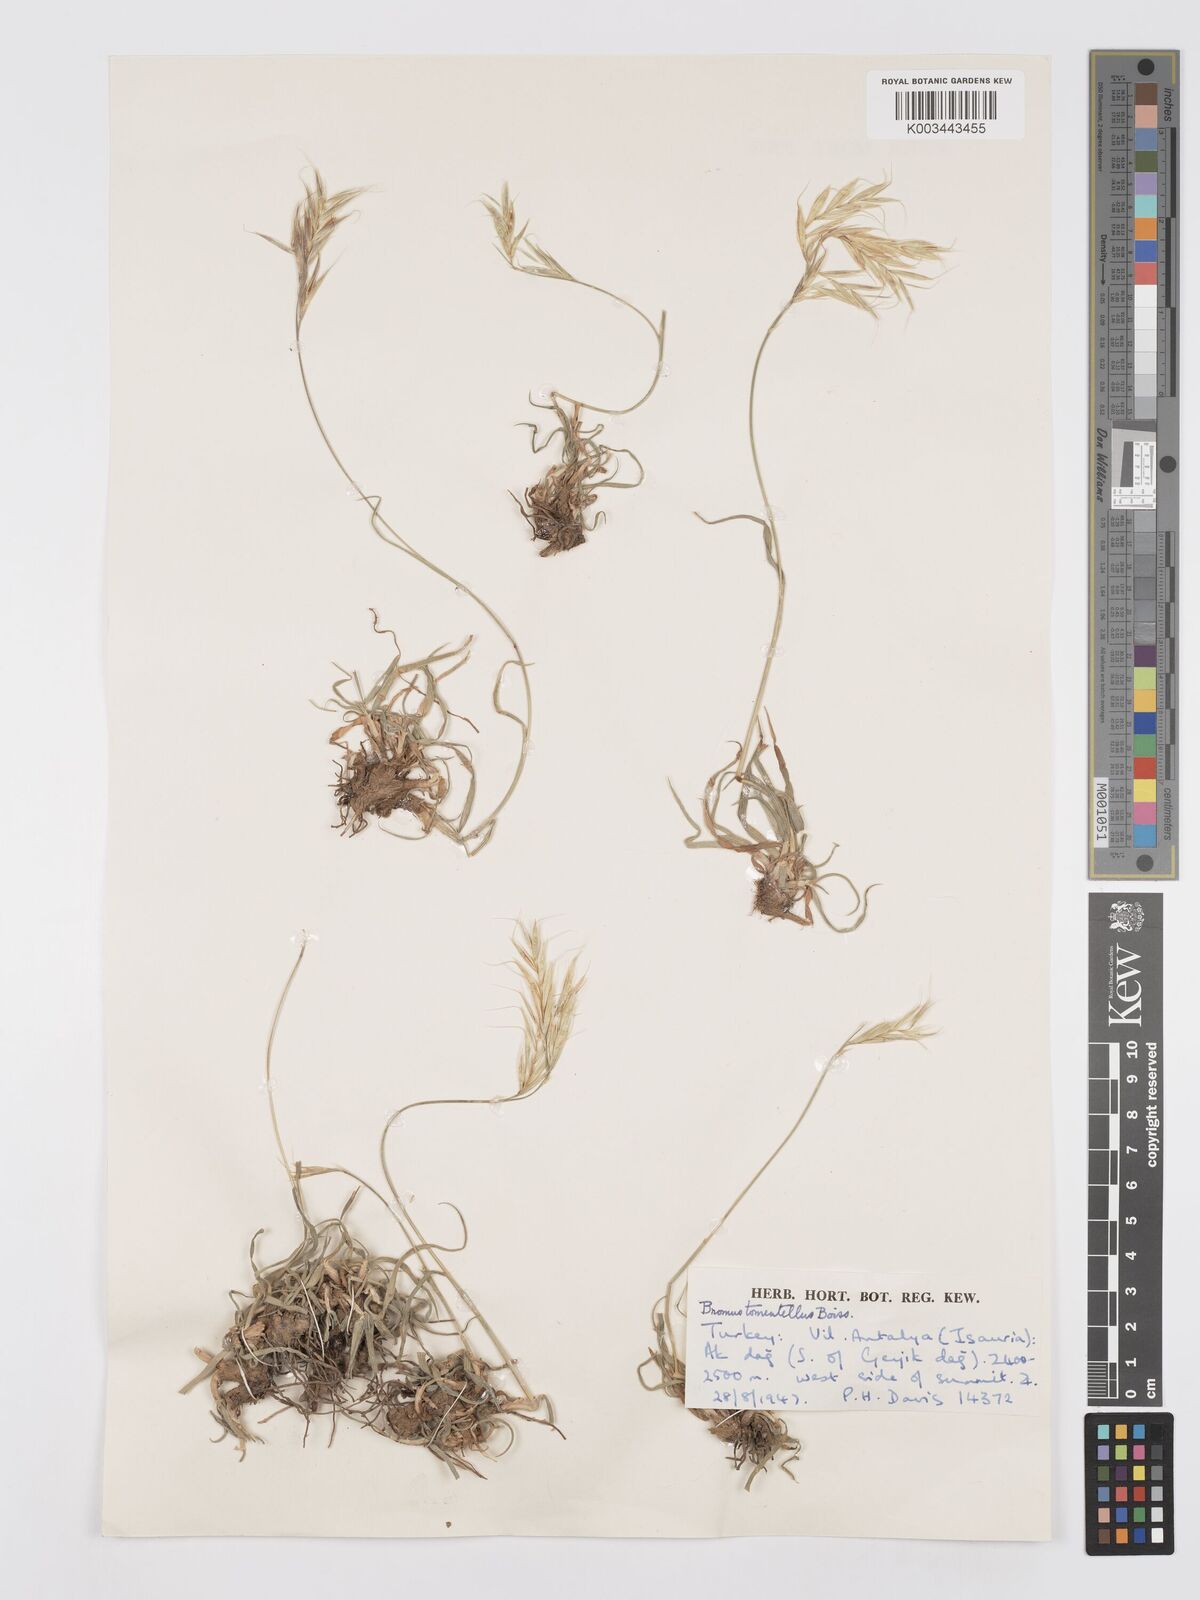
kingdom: Plantae
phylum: Tracheophyta
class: Liliopsida
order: Poales
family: Poaceae
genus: Bromus
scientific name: Bromus tomentellus
